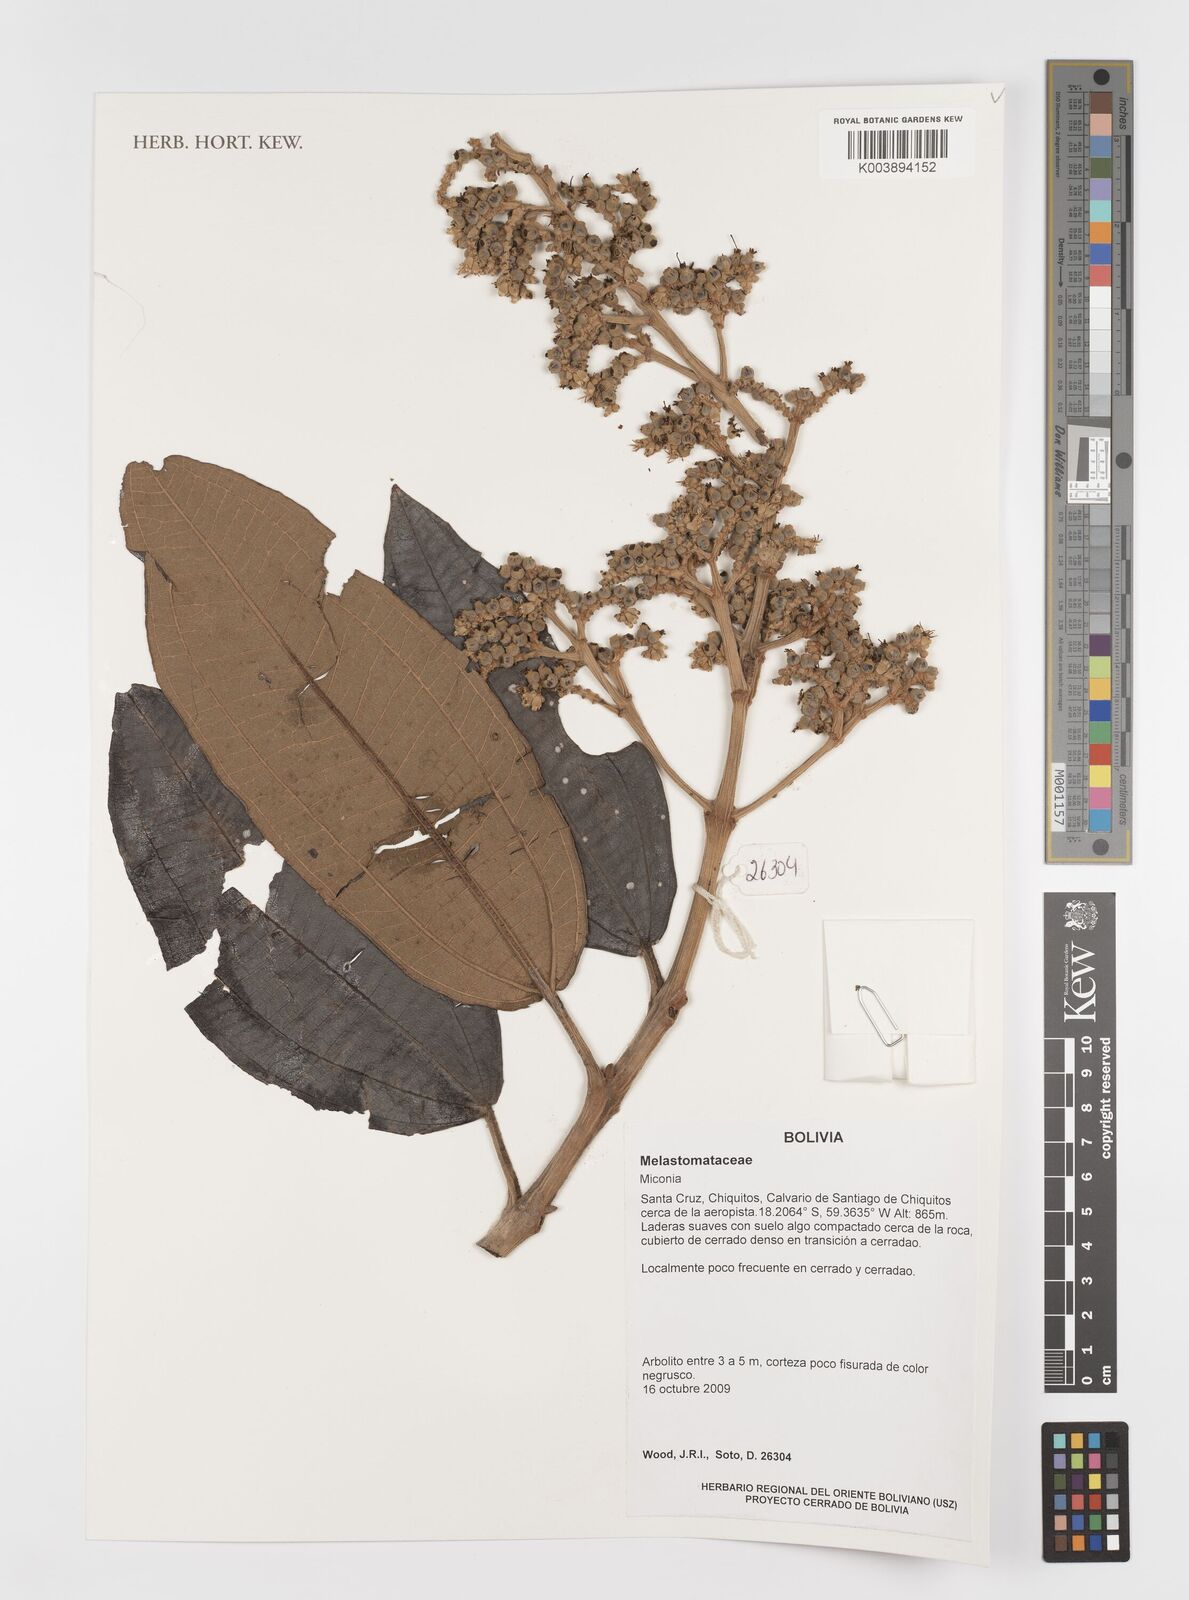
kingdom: Plantae
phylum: Tracheophyta
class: Magnoliopsida
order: Myrtales
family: Melastomataceae
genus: Miconia
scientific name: Miconia
